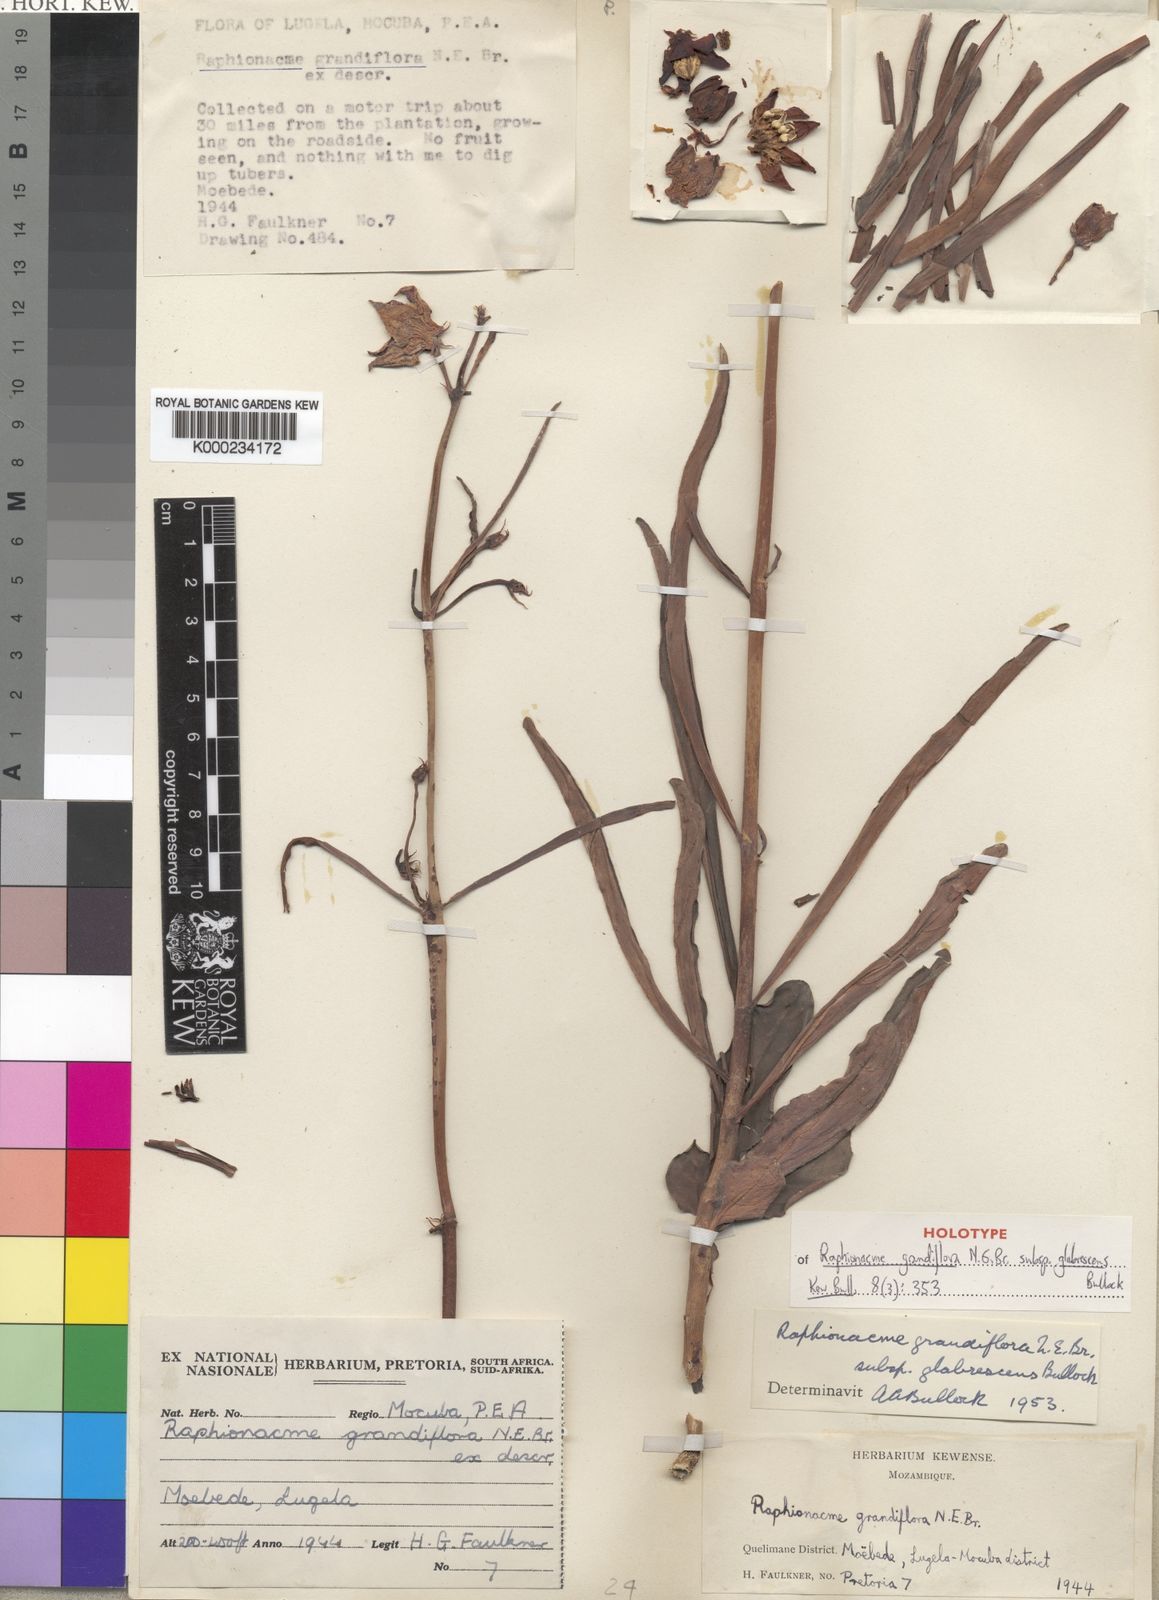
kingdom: Plantae
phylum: Tracheophyta
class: Magnoliopsida
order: Gentianales
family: Apocynaceae
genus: Raphionacme
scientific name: Raphionacme grandiflora
